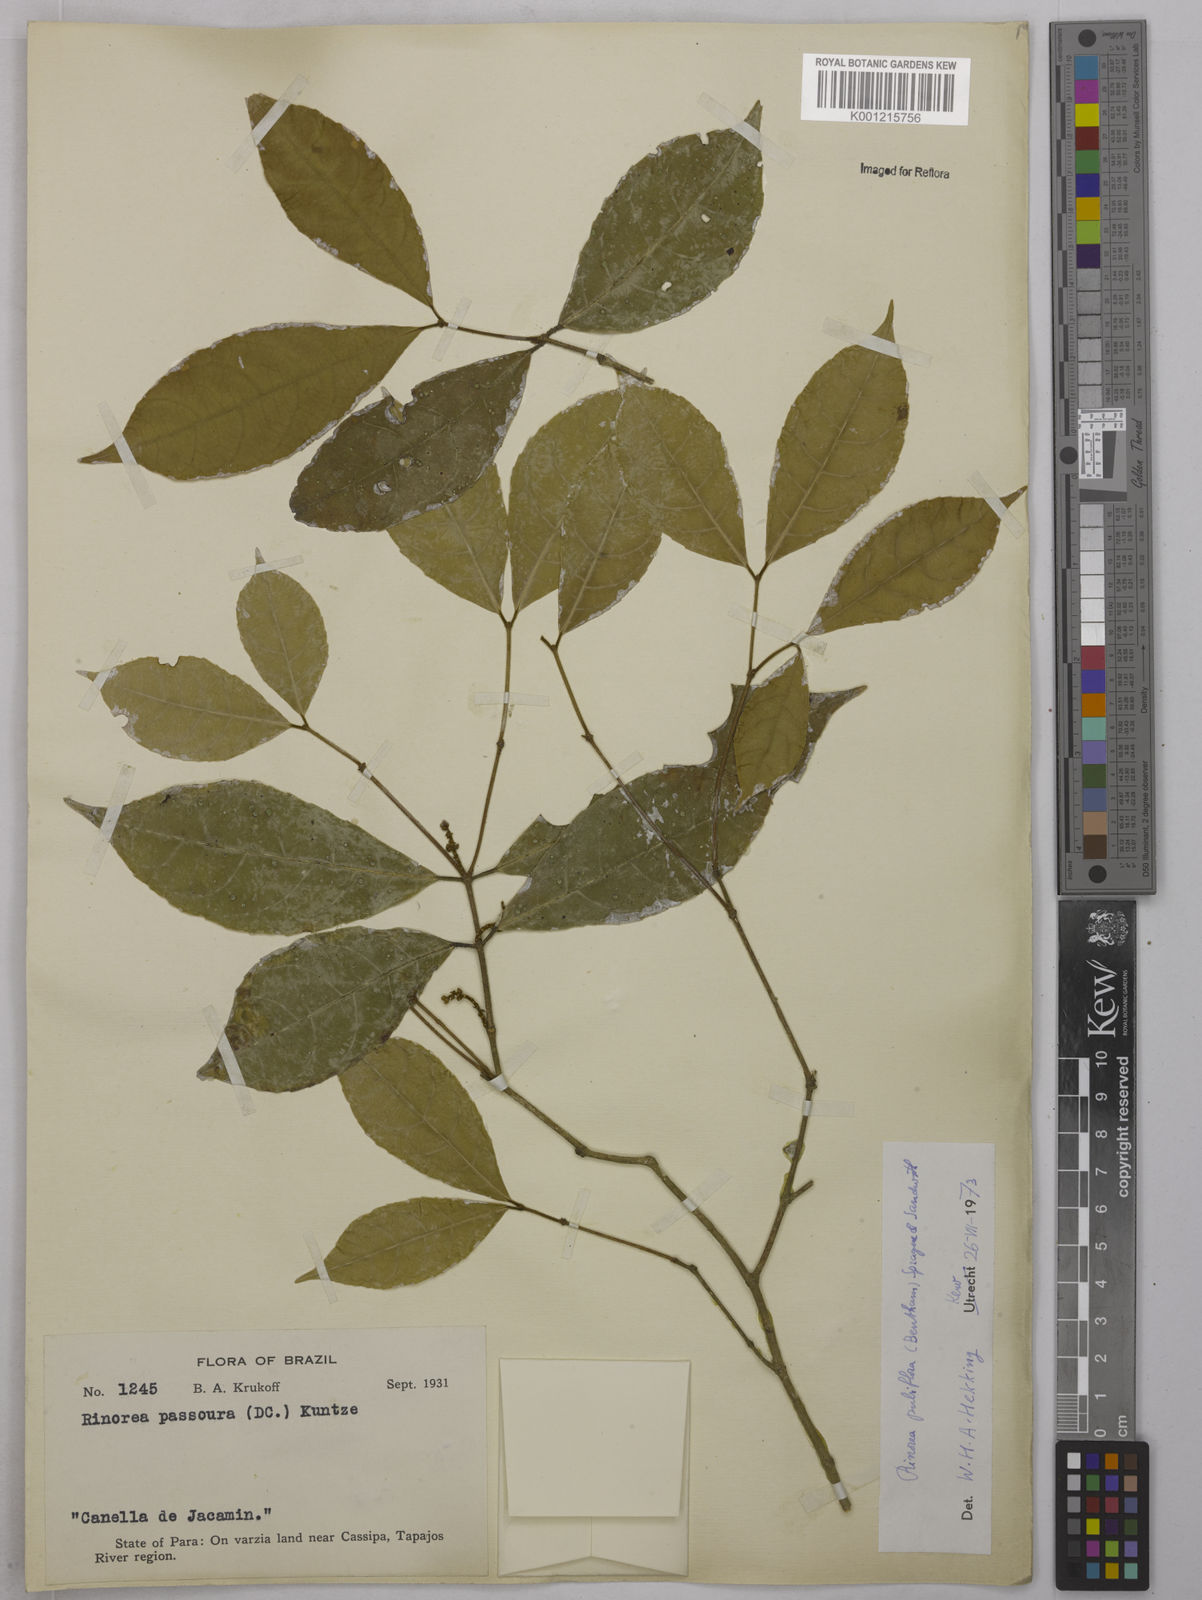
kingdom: Plantae
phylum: Tracheophyta
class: Magnoliopsida
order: Malpighiales
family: Violaceae
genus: Rinorea
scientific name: Rinorea pubiflora
